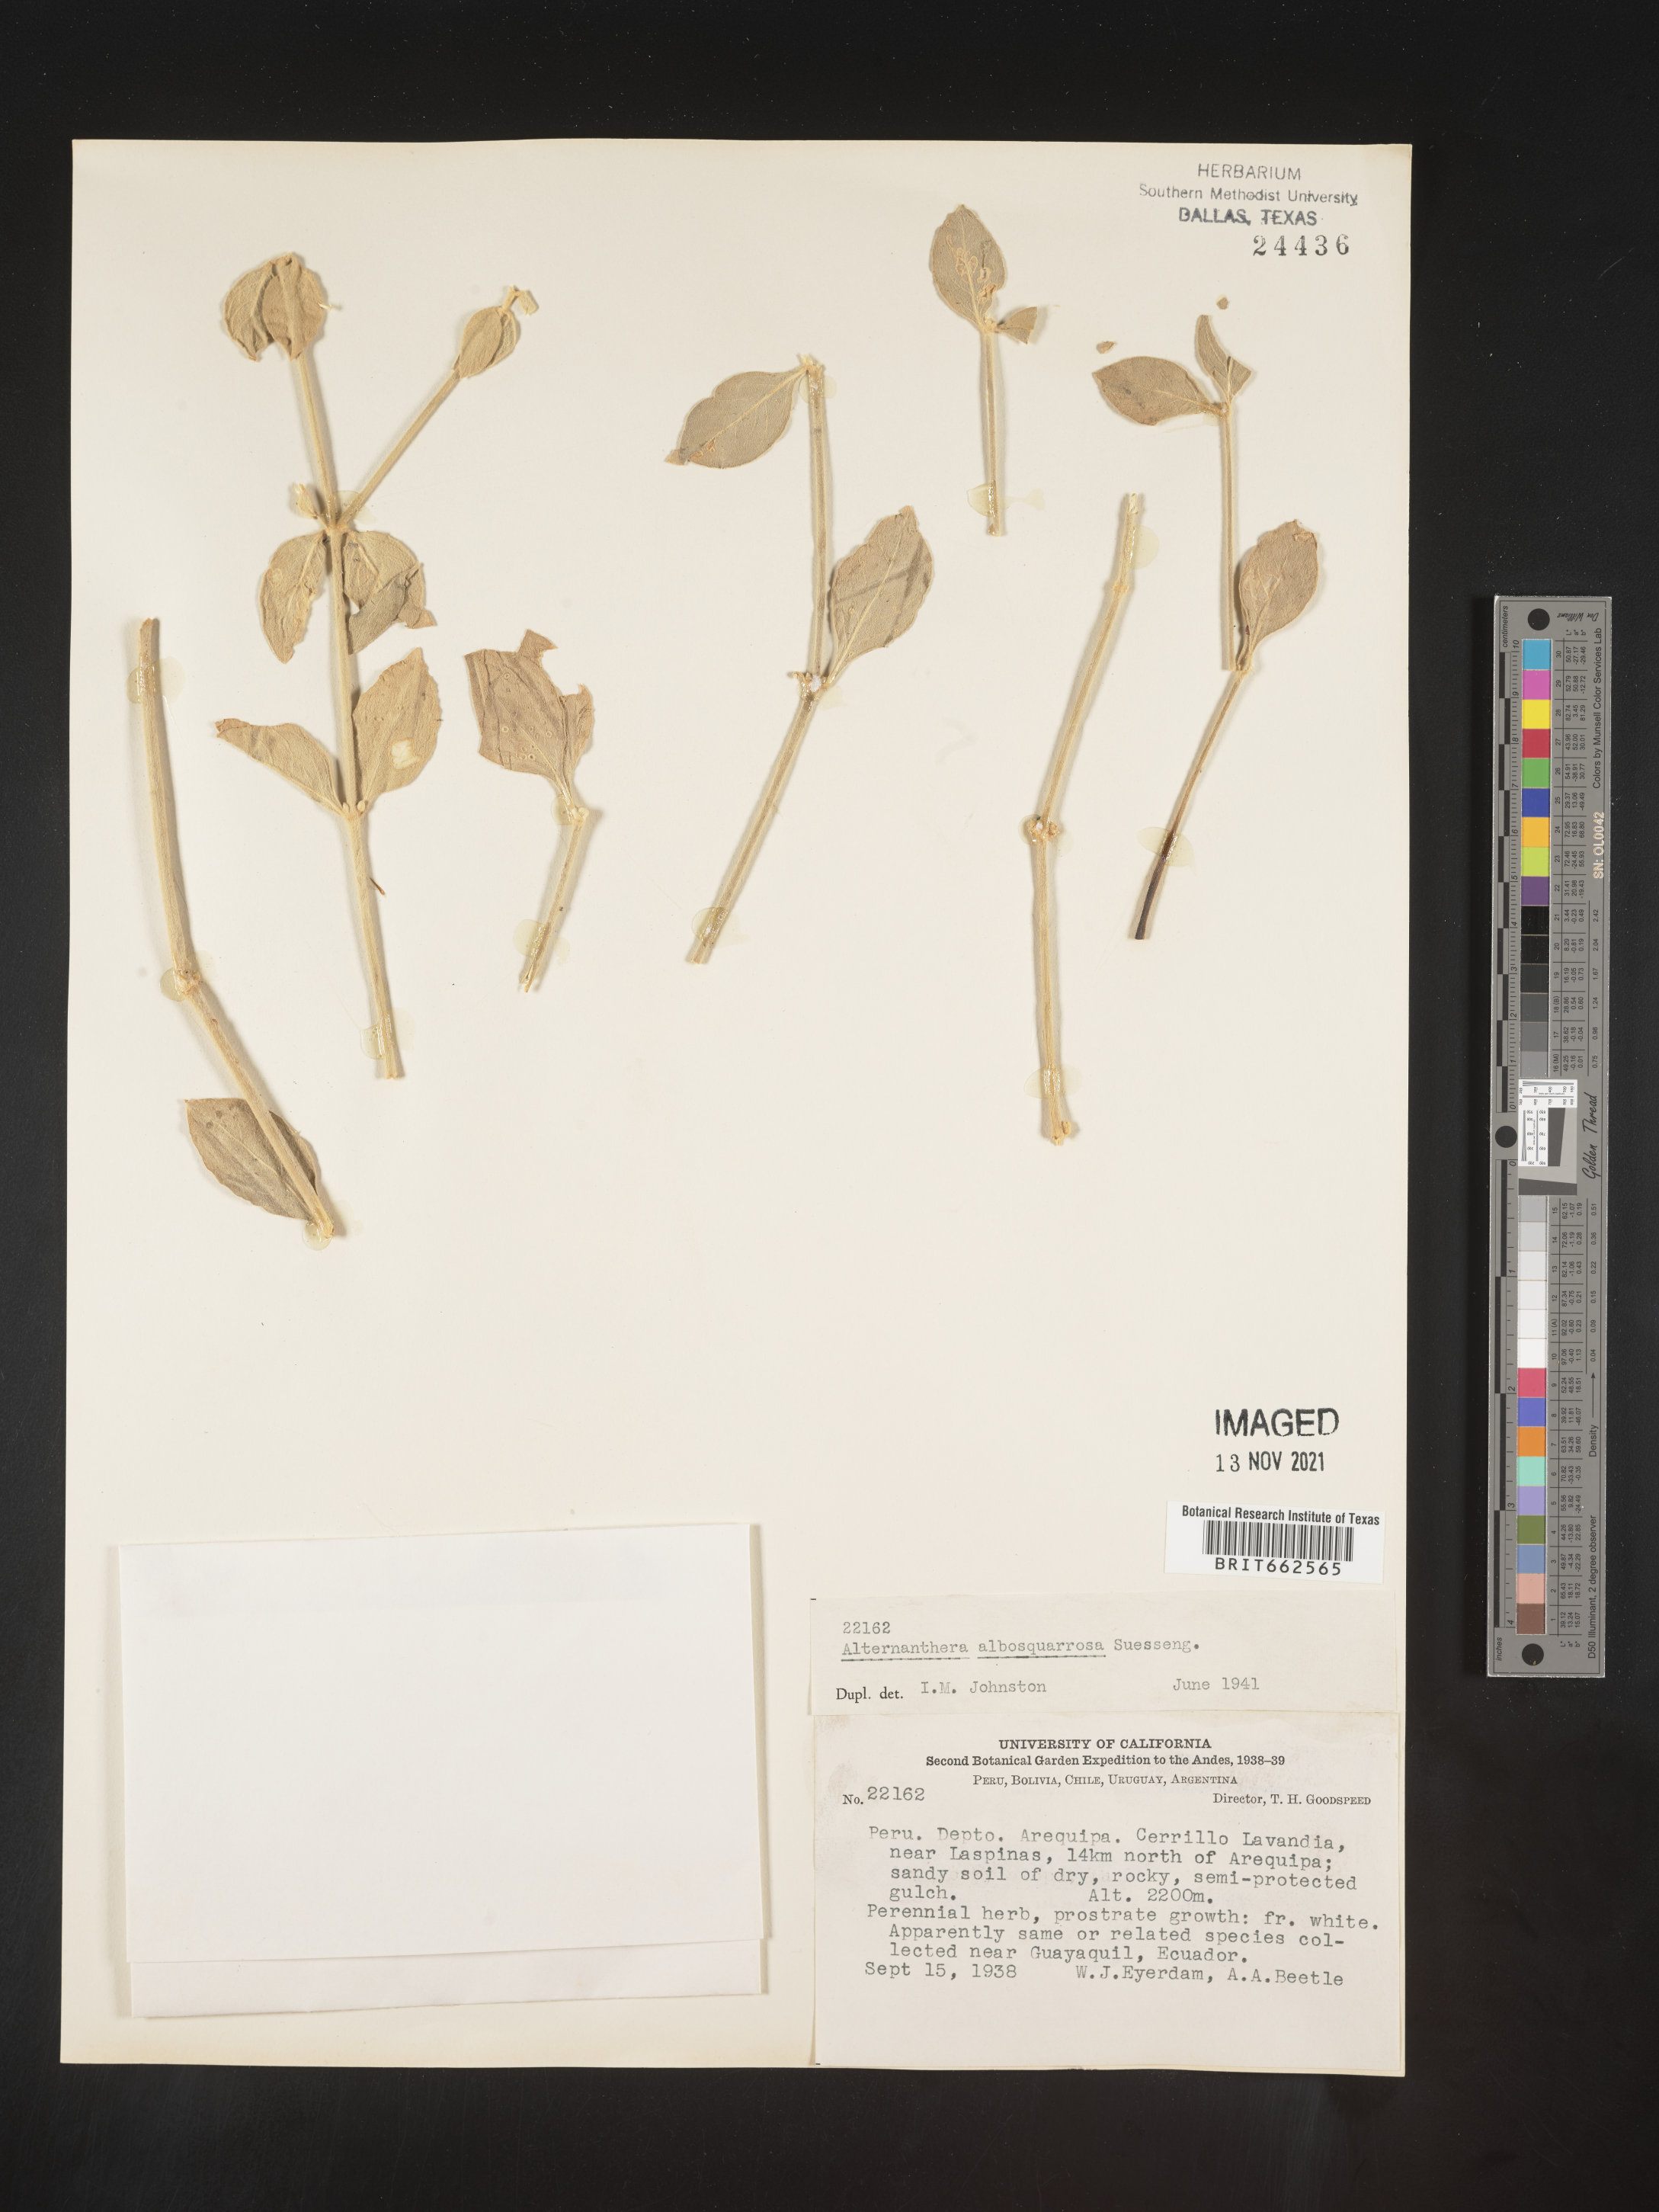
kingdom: Plantae
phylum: Tracheophyta
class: Magnoliopsida
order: Caryophyllales
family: Amaranthaceae
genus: Alternanthera
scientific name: Alternanthera
